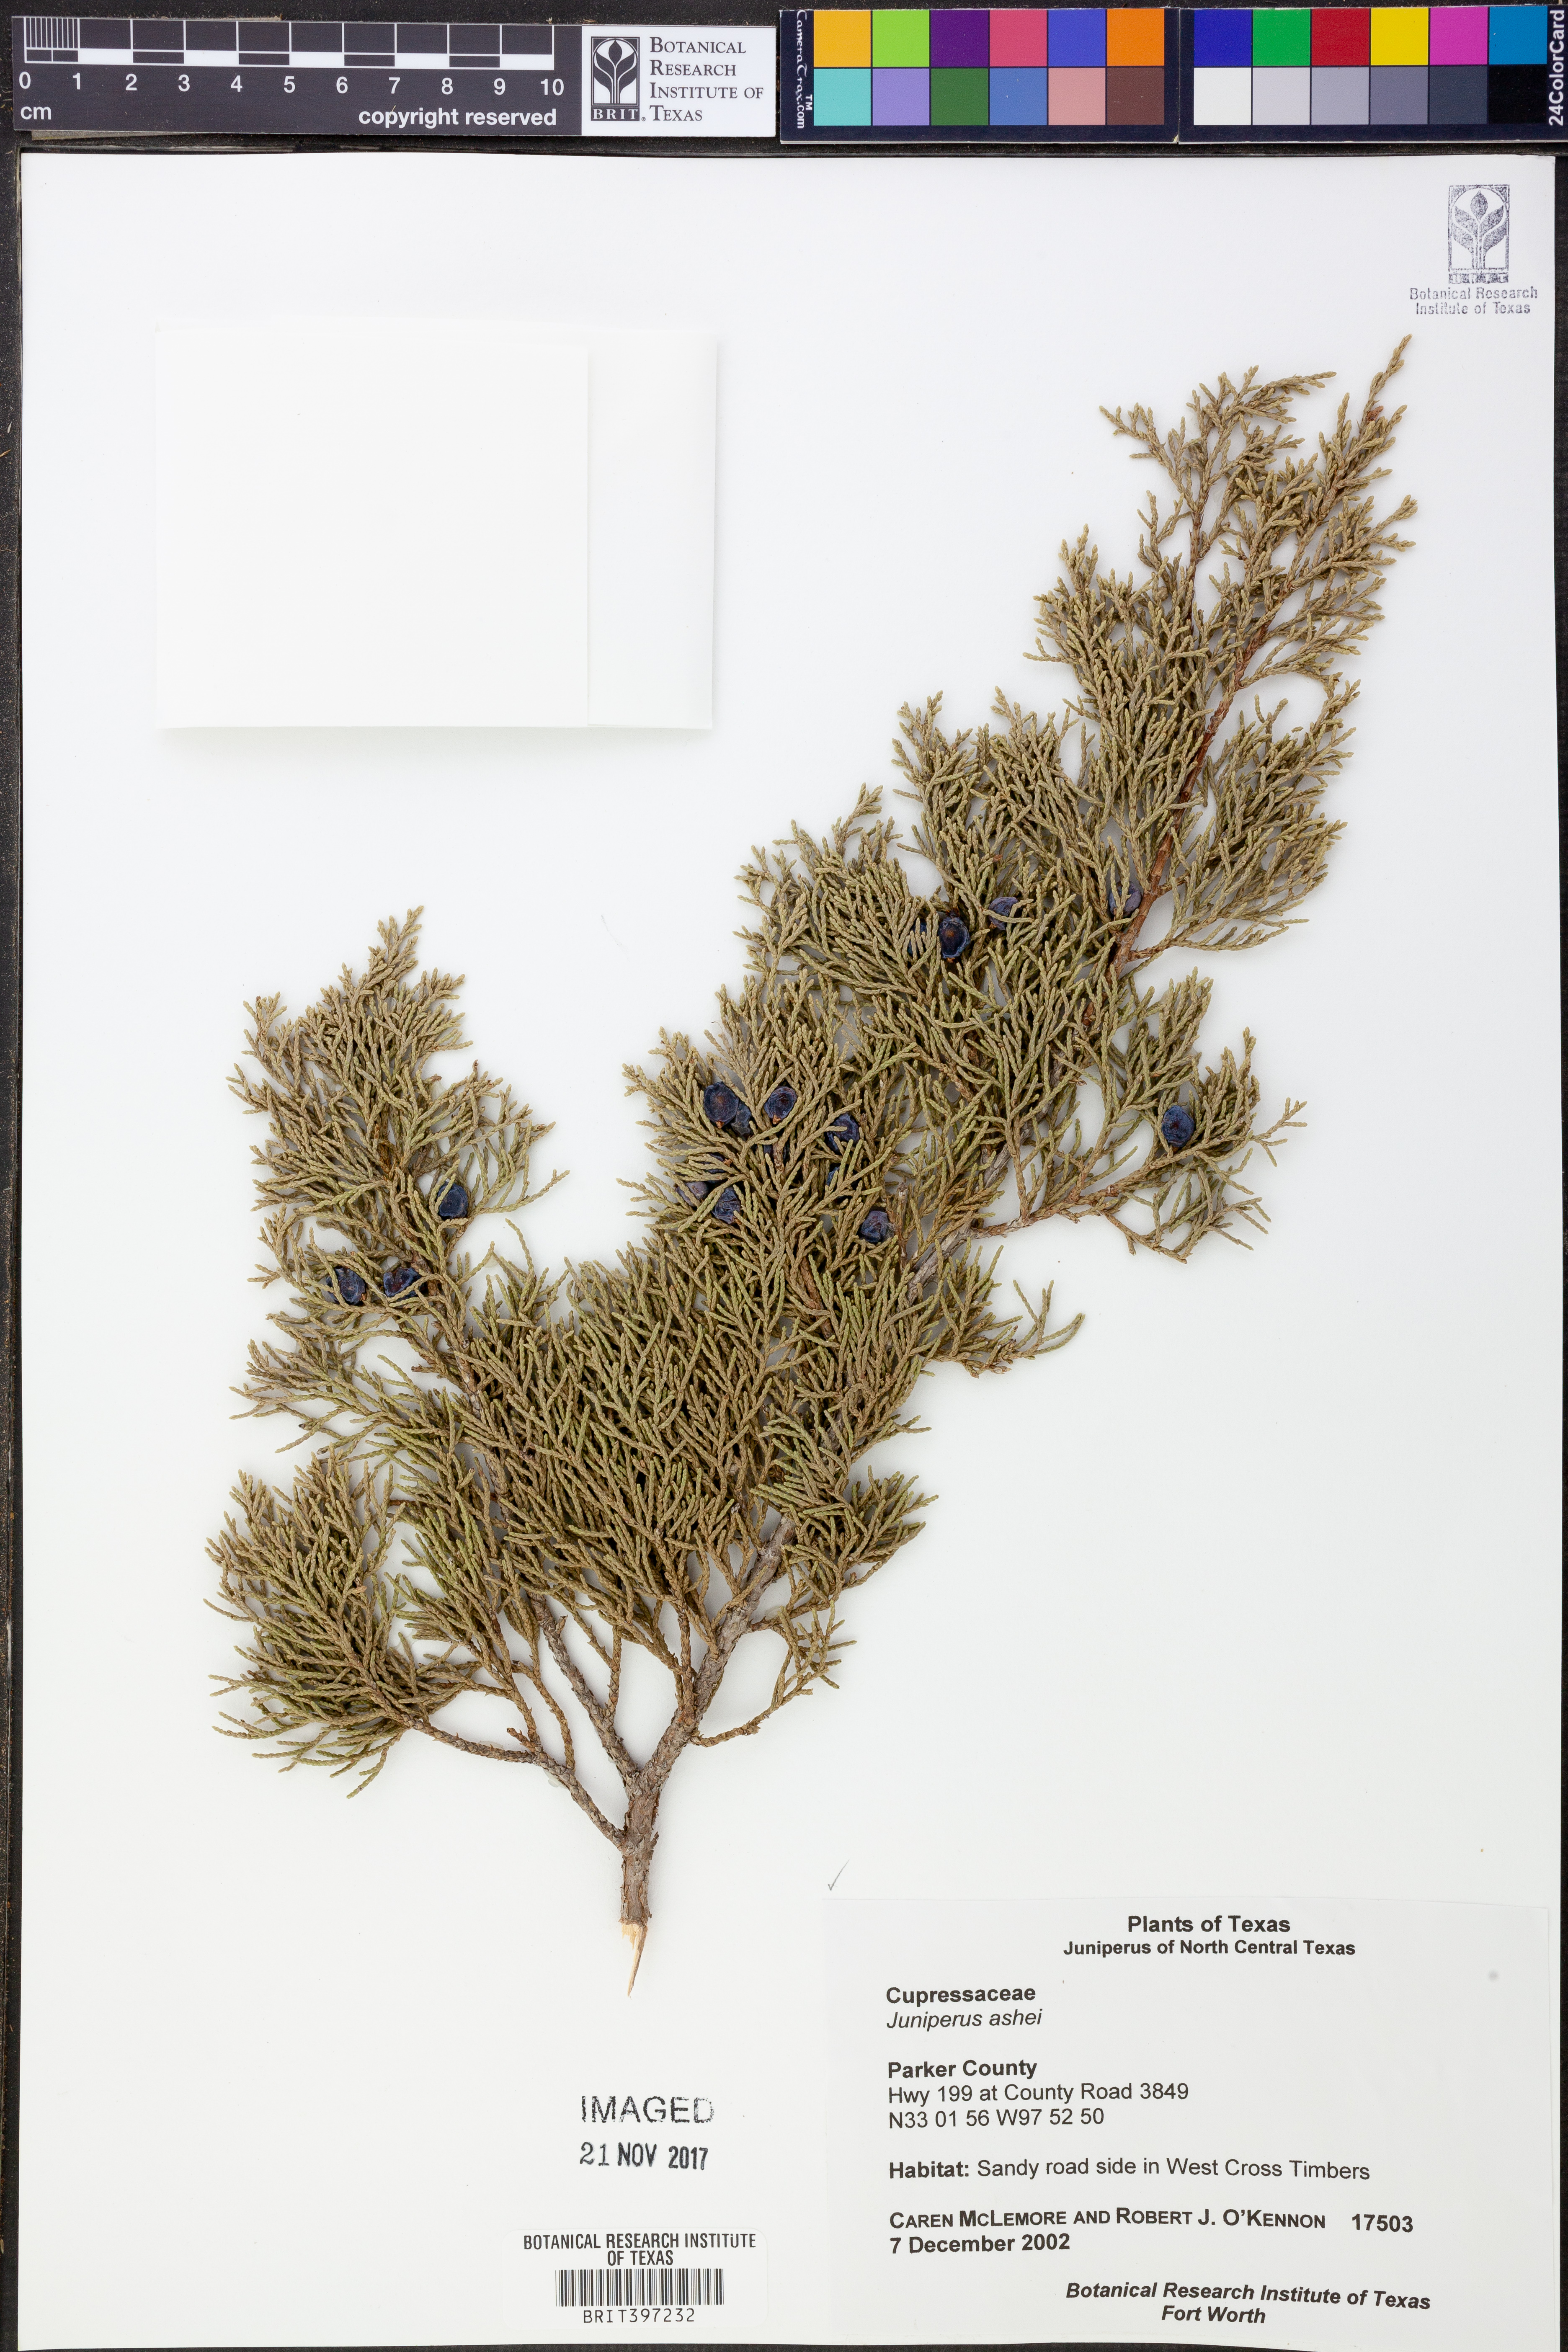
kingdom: Plantae
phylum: Tracheophyta
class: Pinopsida
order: Pinales
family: Cupressaceae
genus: Juniperus
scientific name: Juniperus ashei
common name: Mexican juniper
